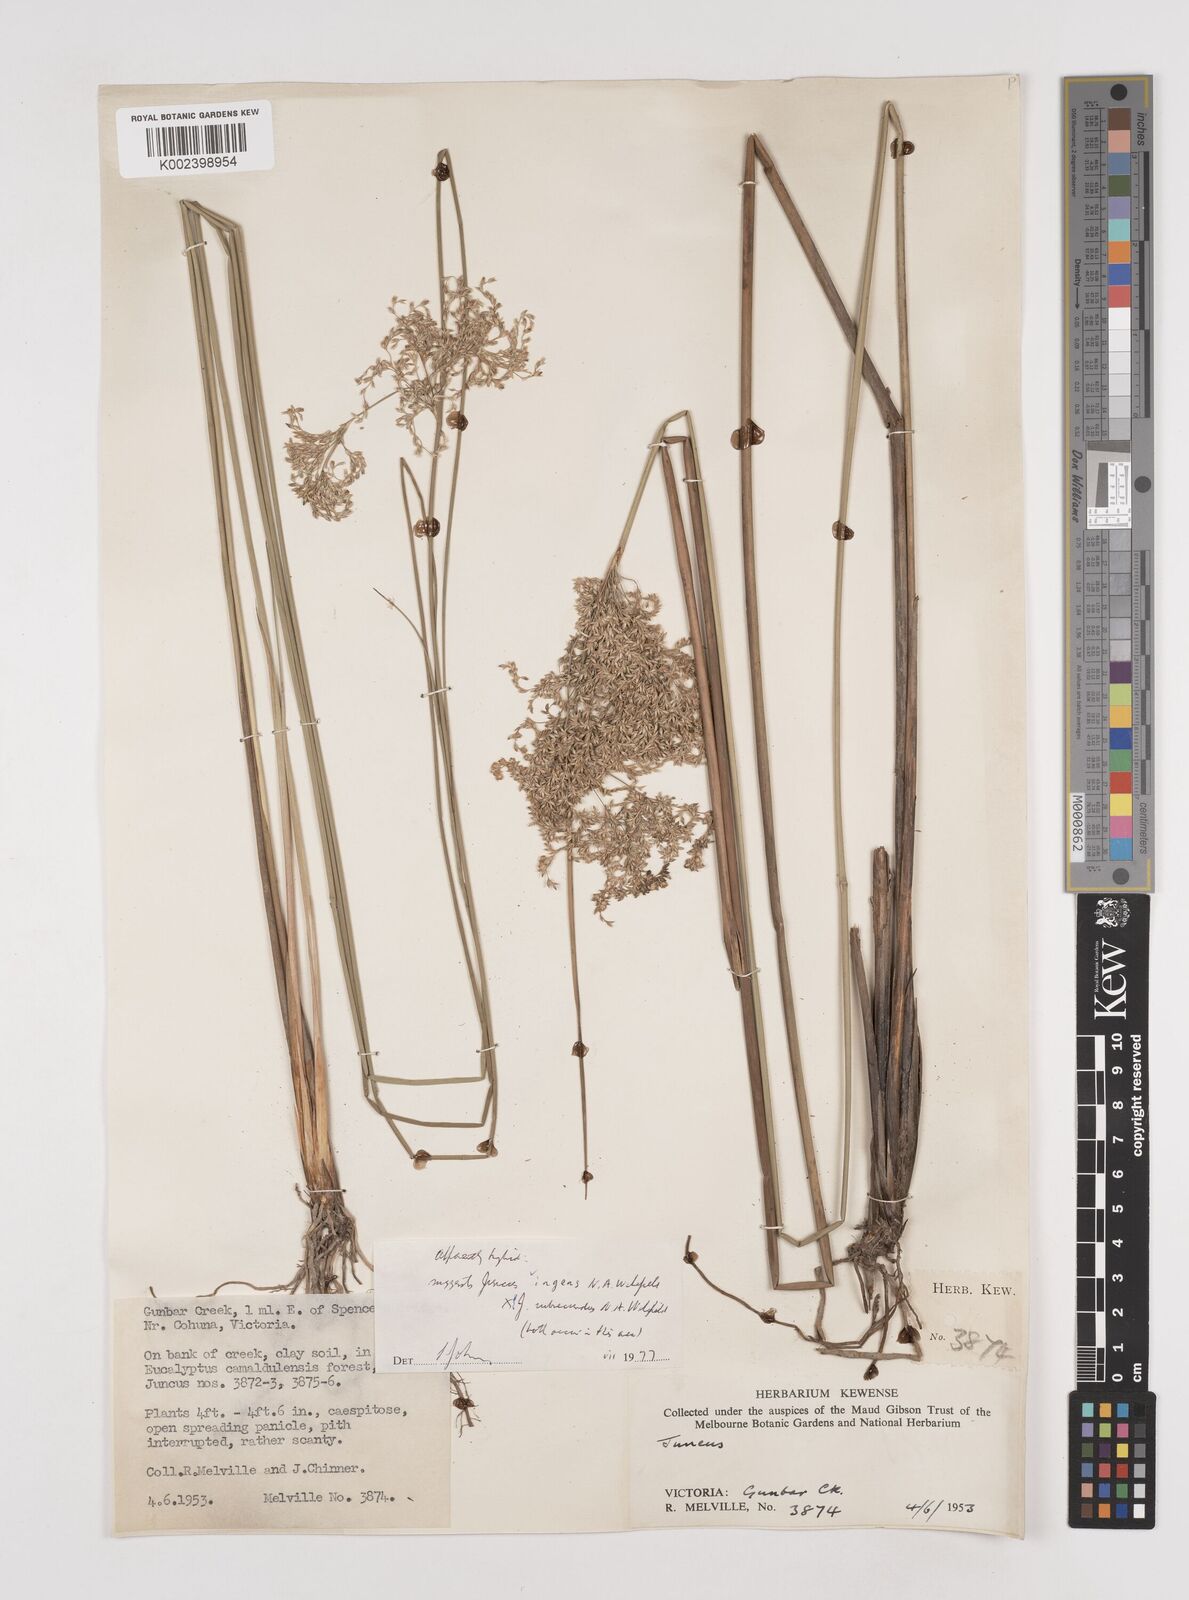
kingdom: Plantae
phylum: Tracheophyta
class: Liliopsida
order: Poales
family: Juncaceae
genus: Juncus
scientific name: Juncus ingens
